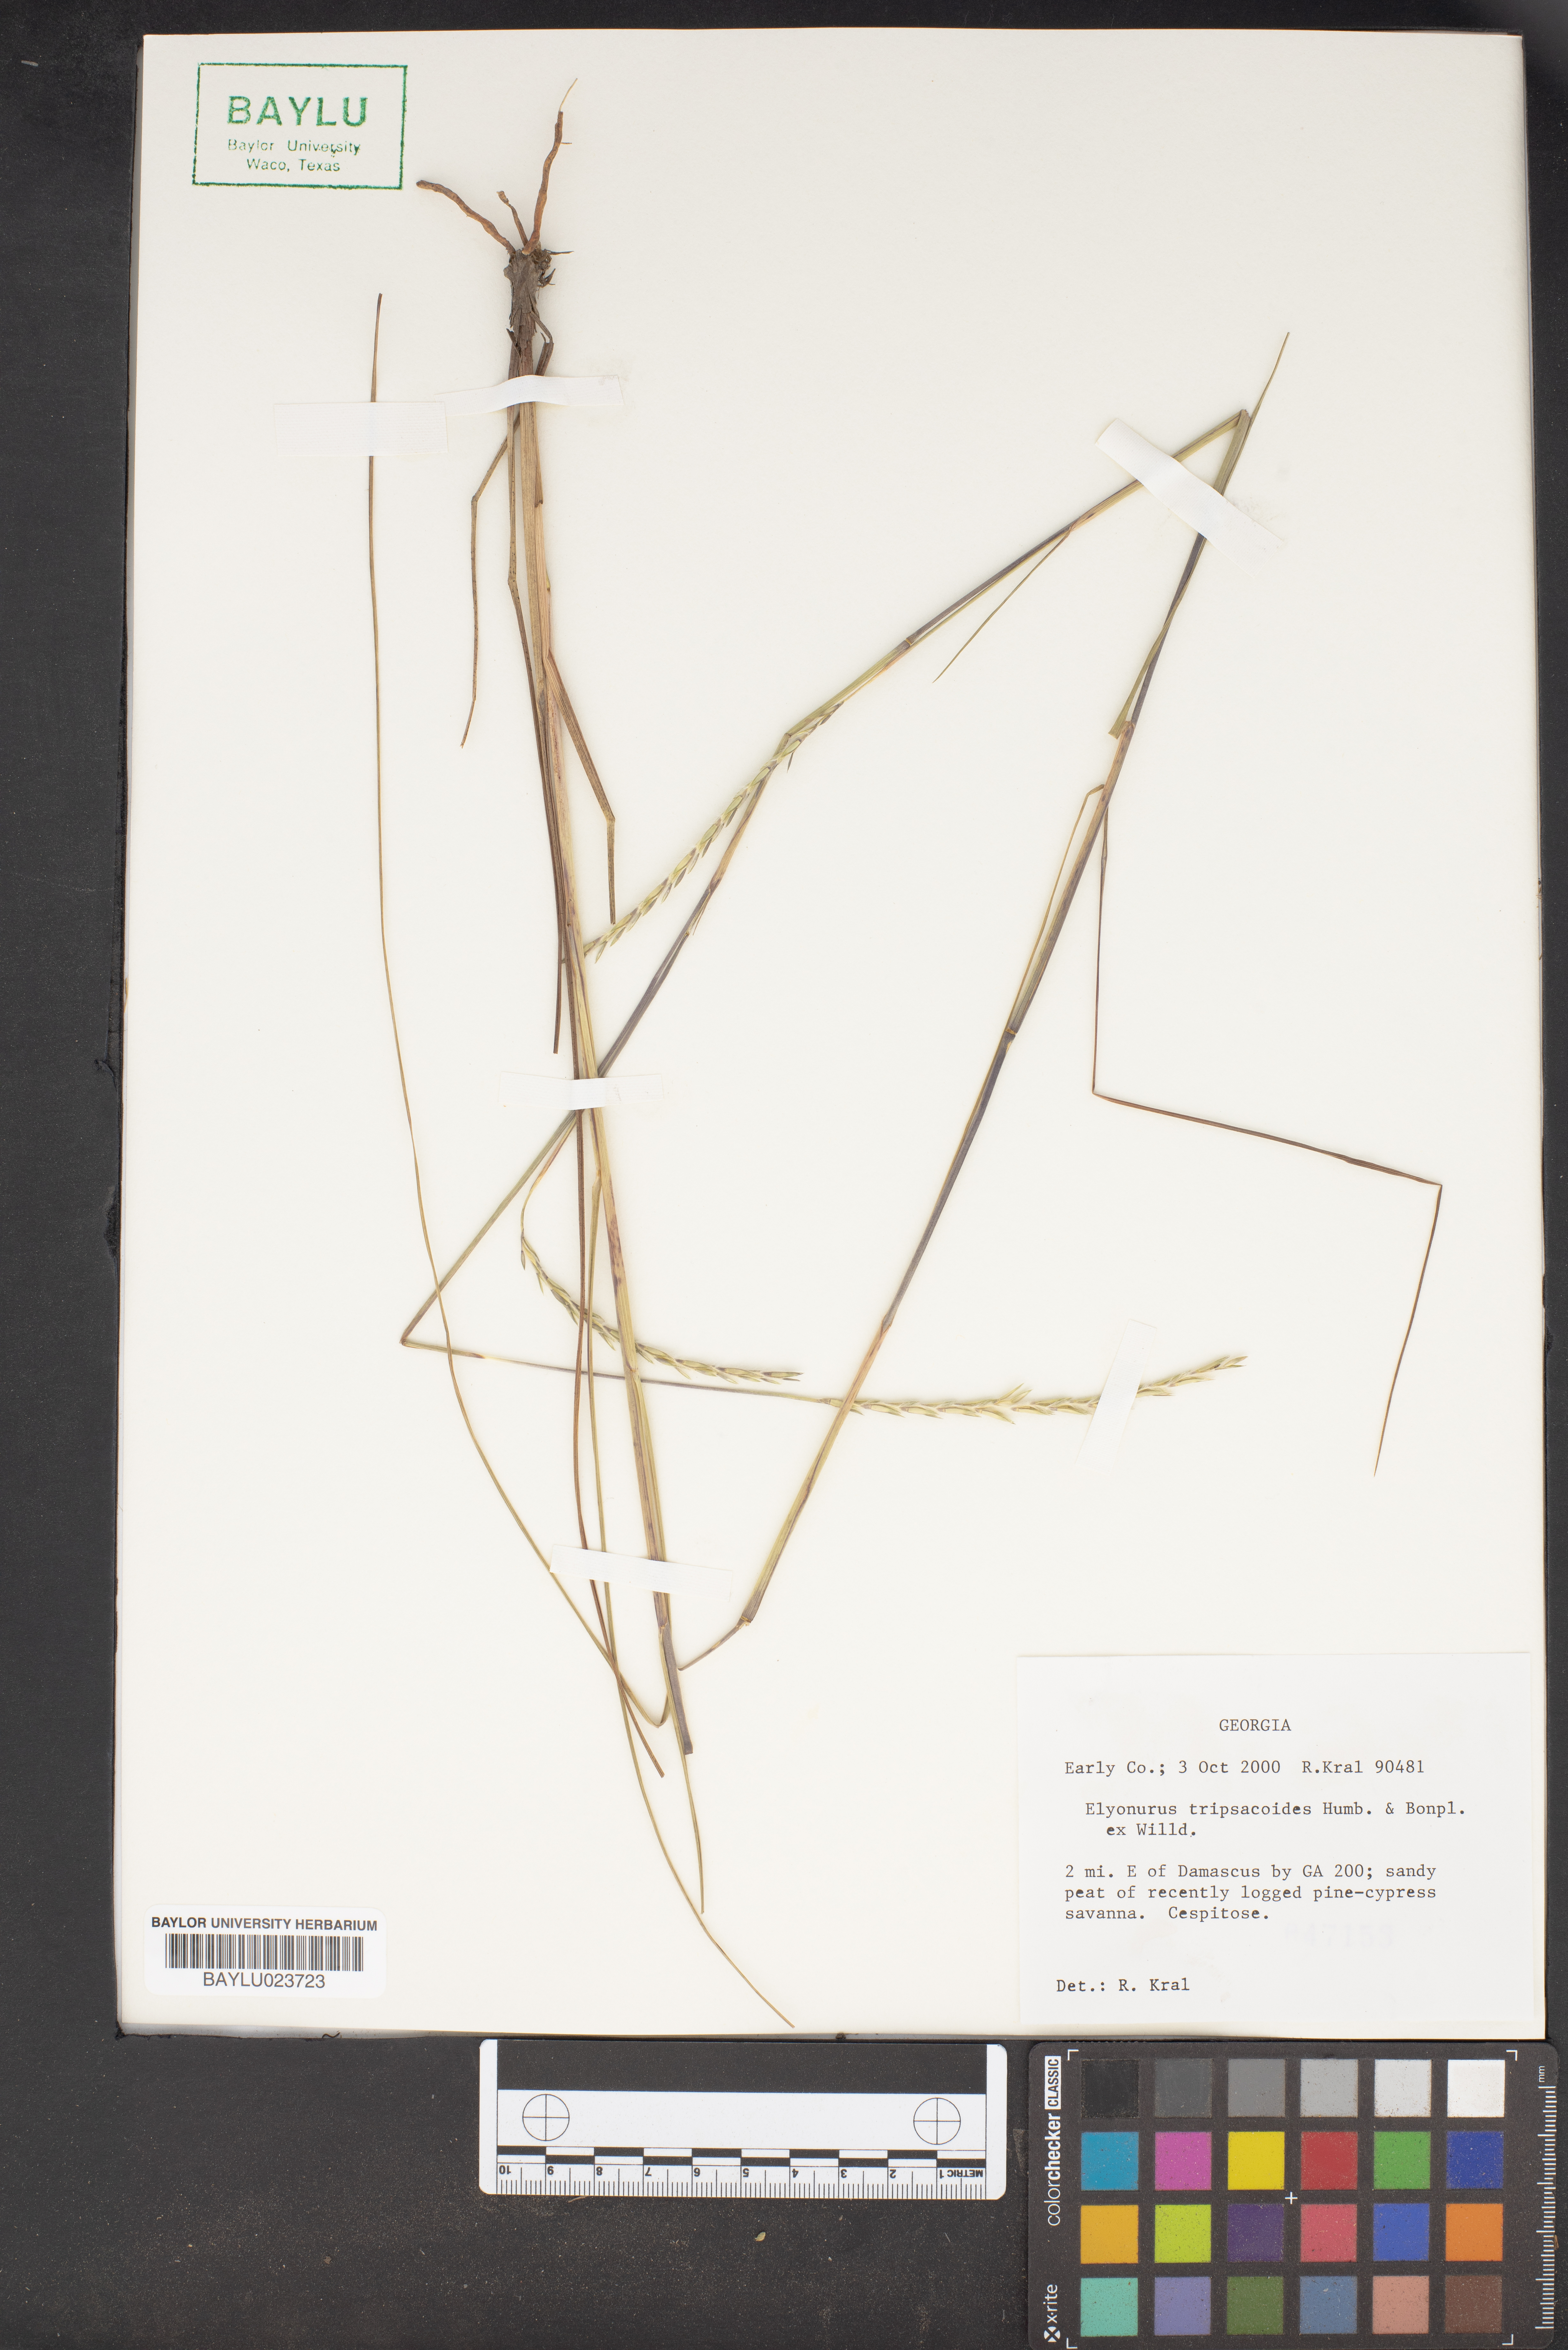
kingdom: Plantae
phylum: Tracheophyta
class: Liliopsida
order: Poales
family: Poaceae
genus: Elionurus
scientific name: Elionurus tripsacoides
